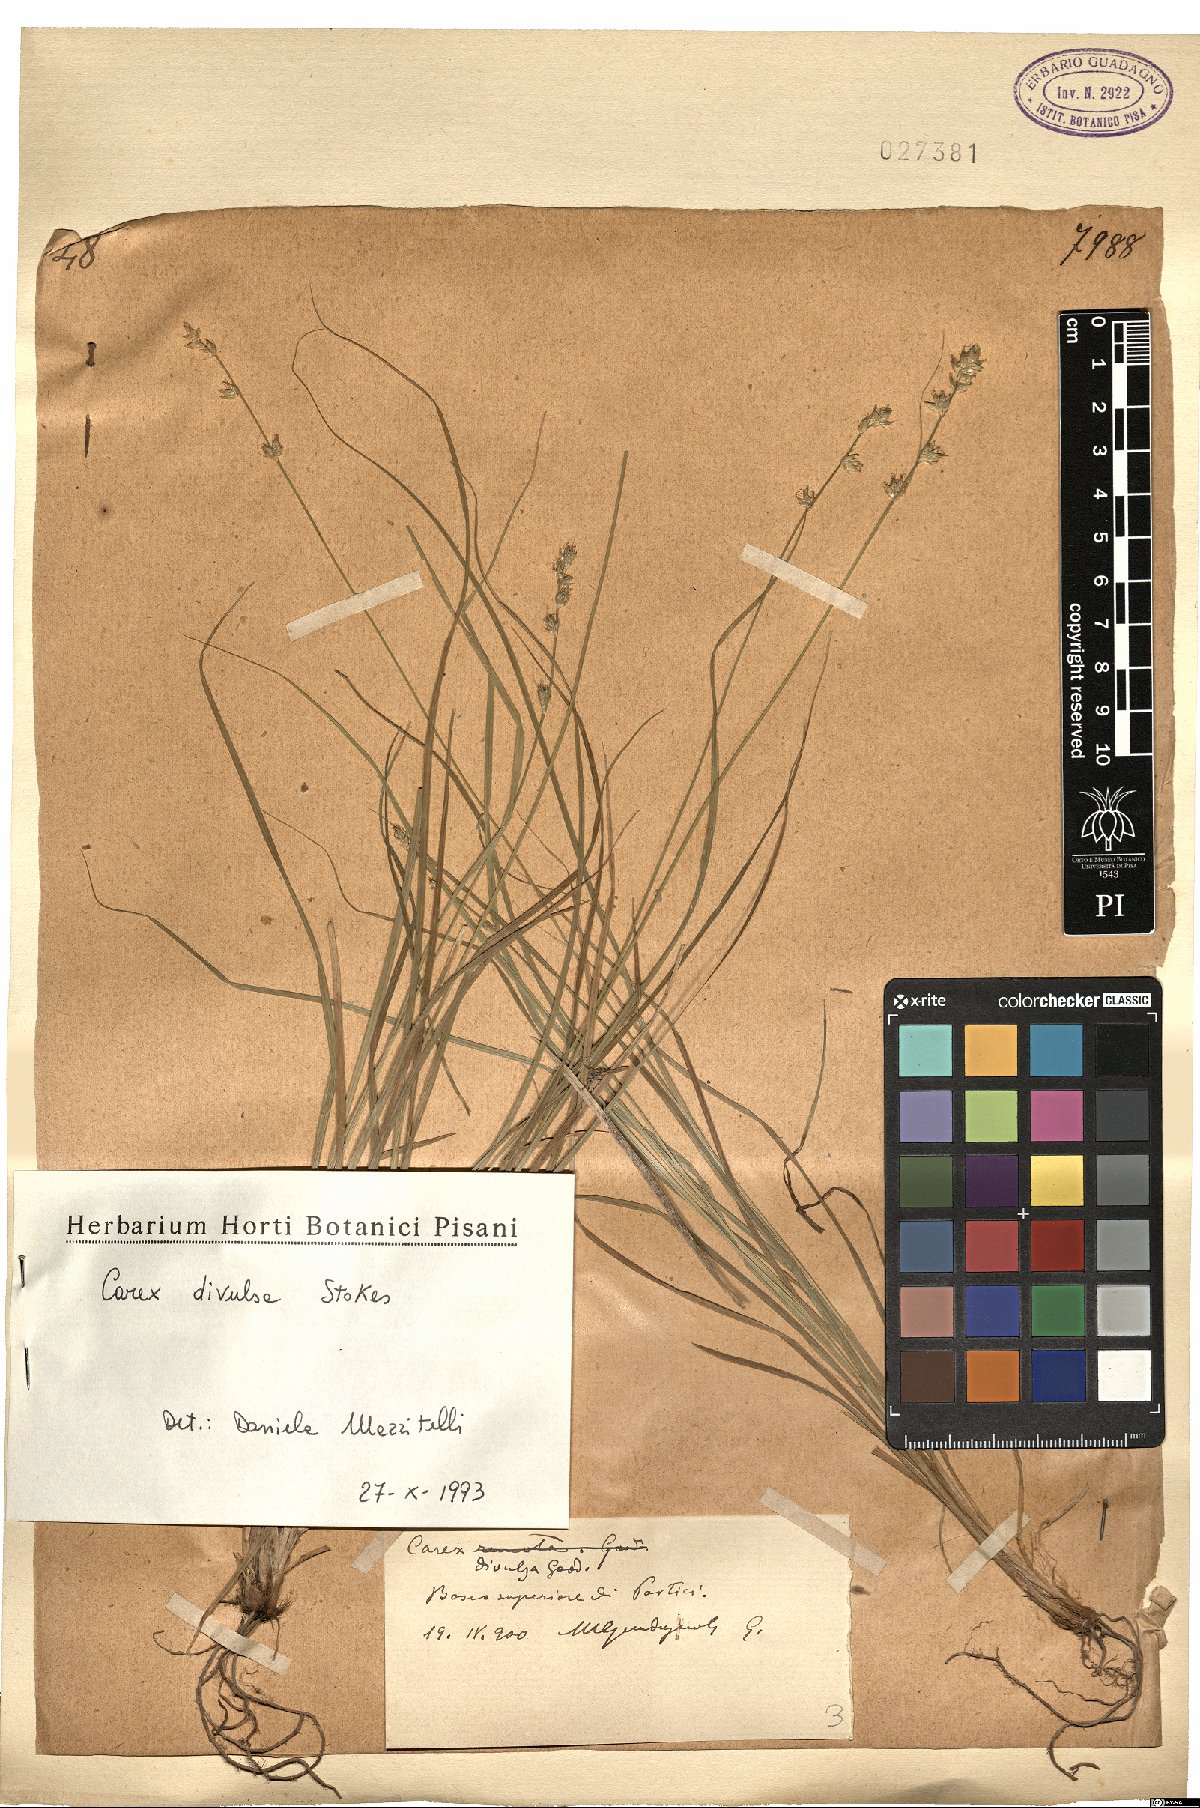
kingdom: Plantae
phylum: Tracheophyta
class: Liliopsida
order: Poales
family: Cyperaceae
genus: Carex
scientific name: Carex divulsa
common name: Grassland sedge
